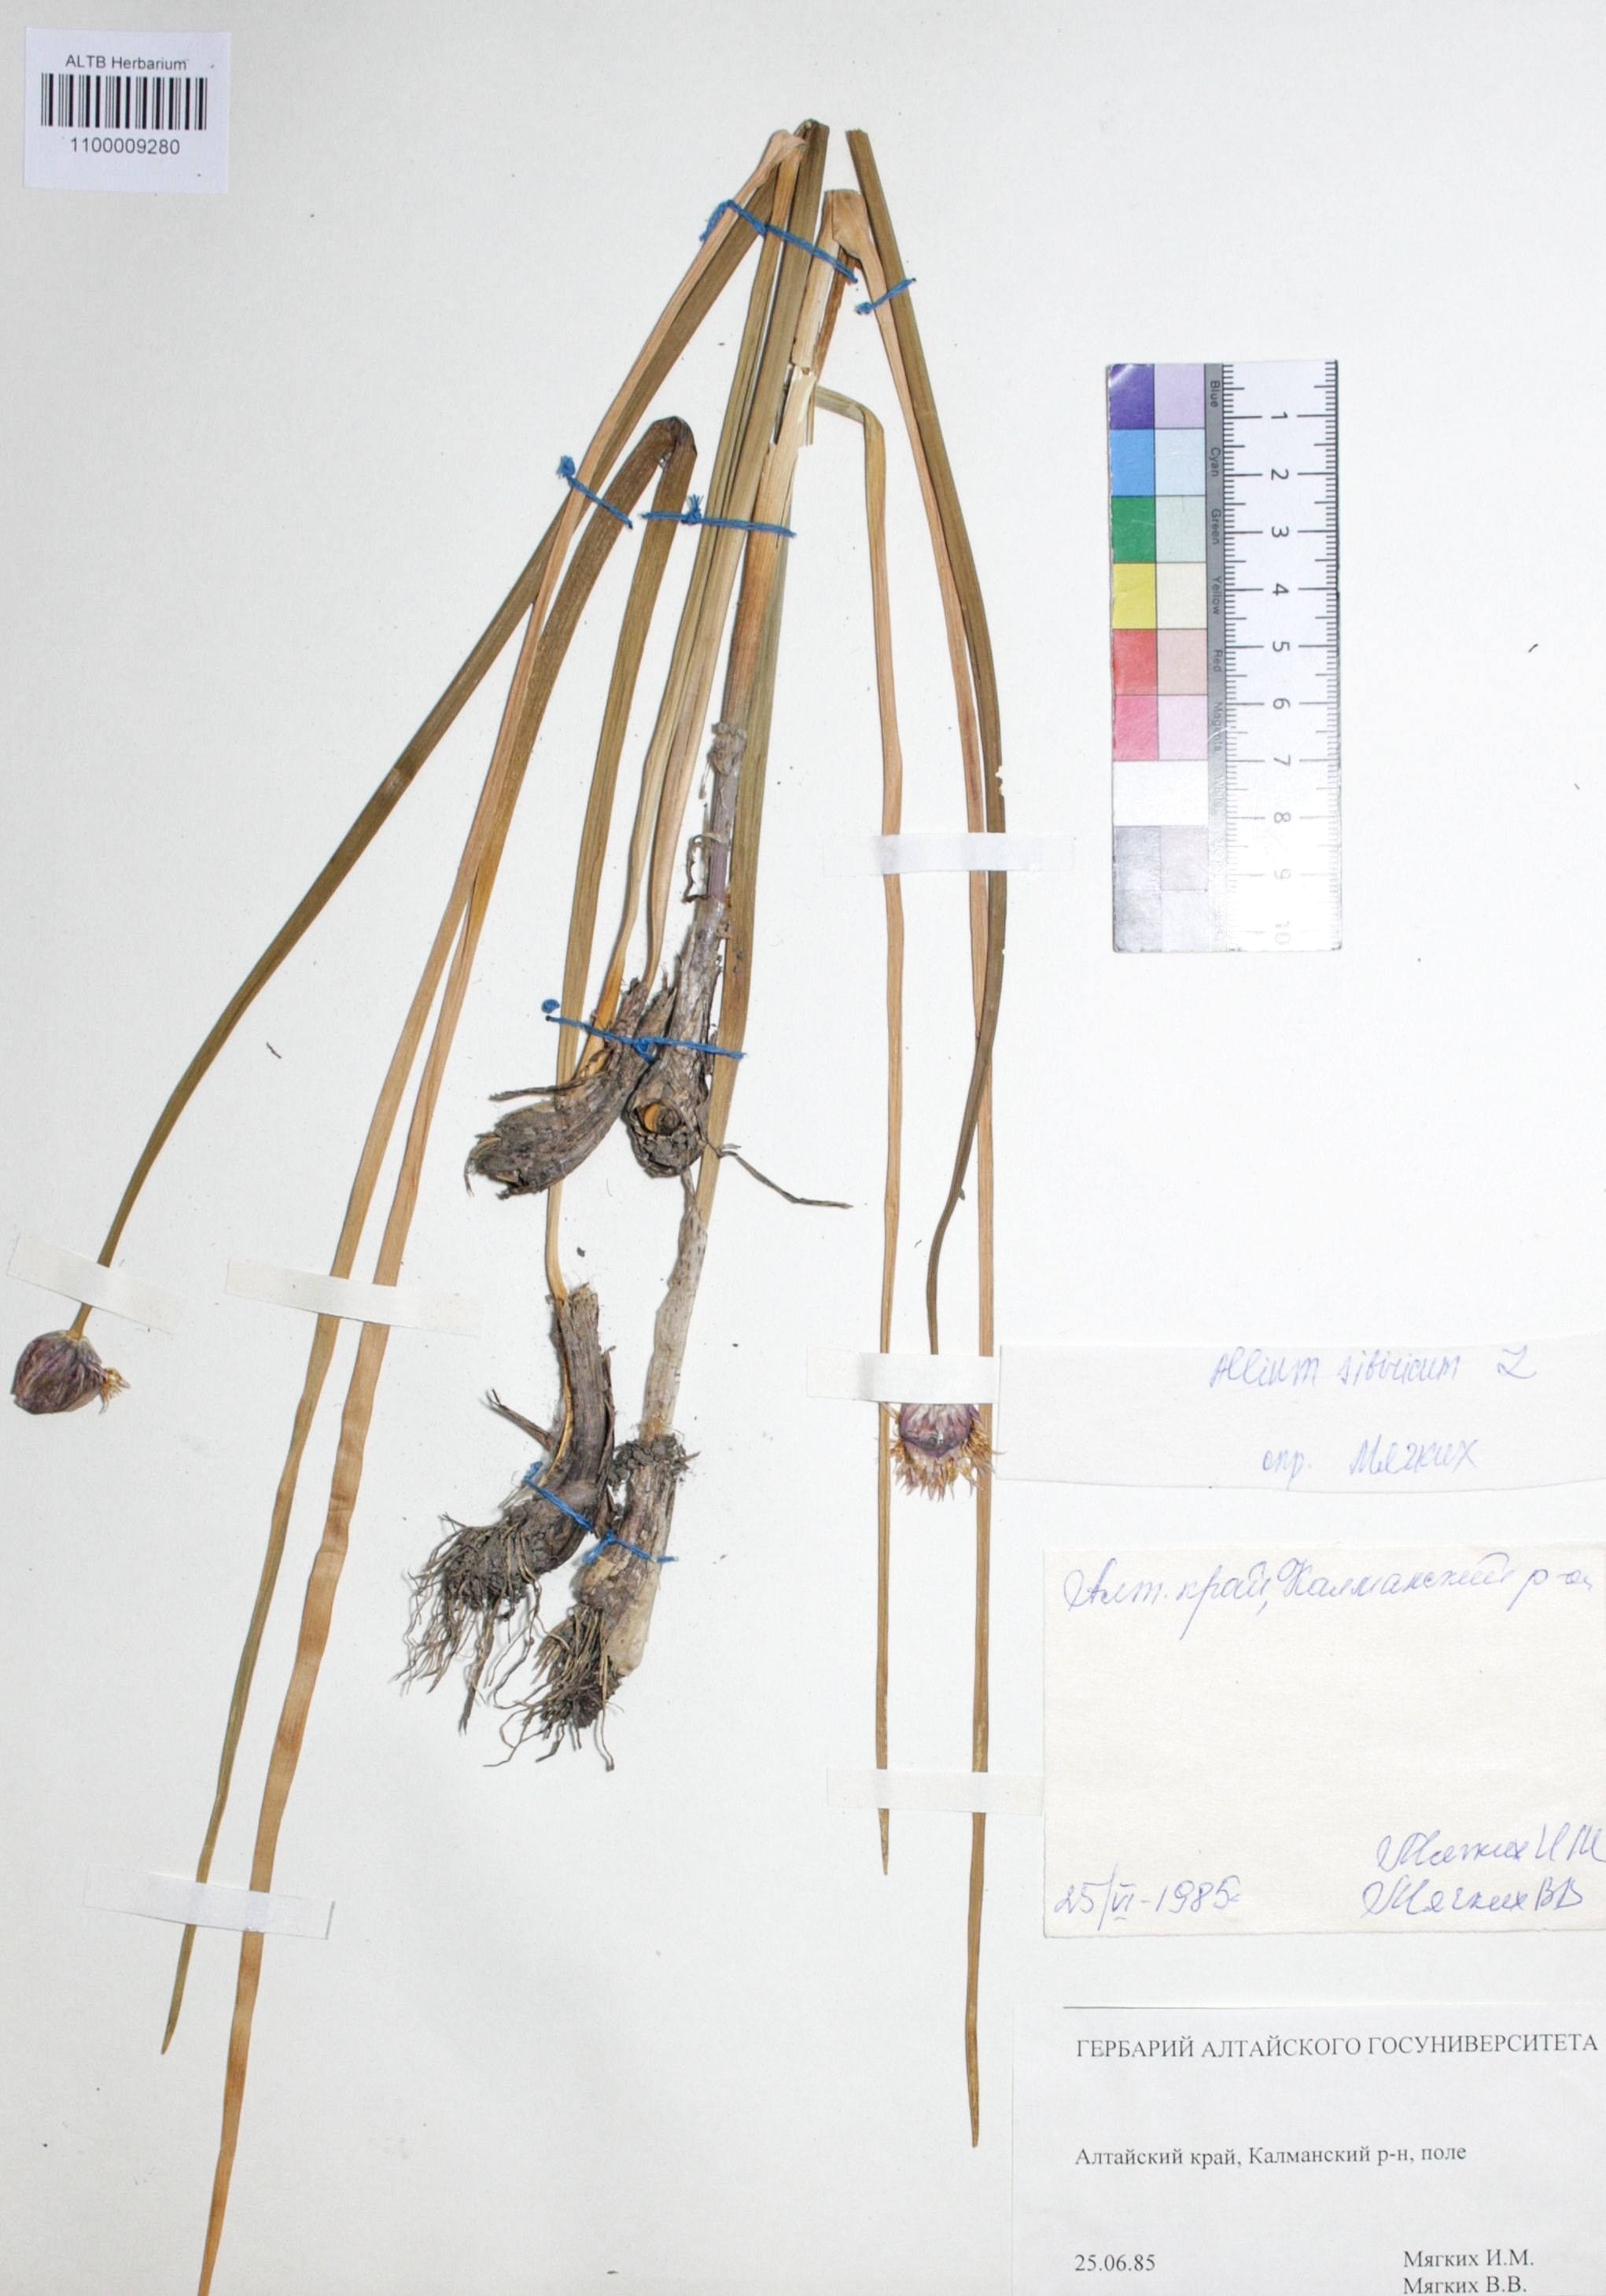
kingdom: Plantae
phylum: Tracheophyta
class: Liliopsida
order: Asparagales
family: Amaryllidaceae
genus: Allium
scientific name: Allium strictum
